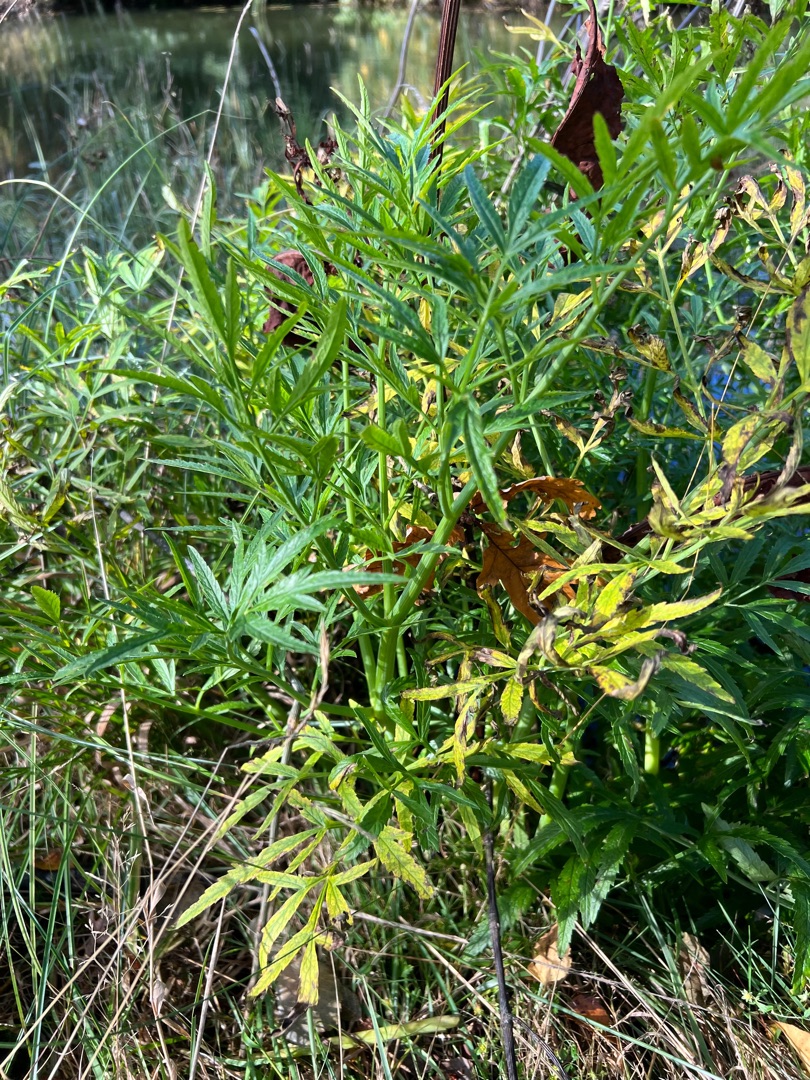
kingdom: Plantae
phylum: Tracheophyta
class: Magnoliopsida
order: Apiales
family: Apiaceae
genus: Cicuta
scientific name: Cicuta virosa
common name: Gifttyde
